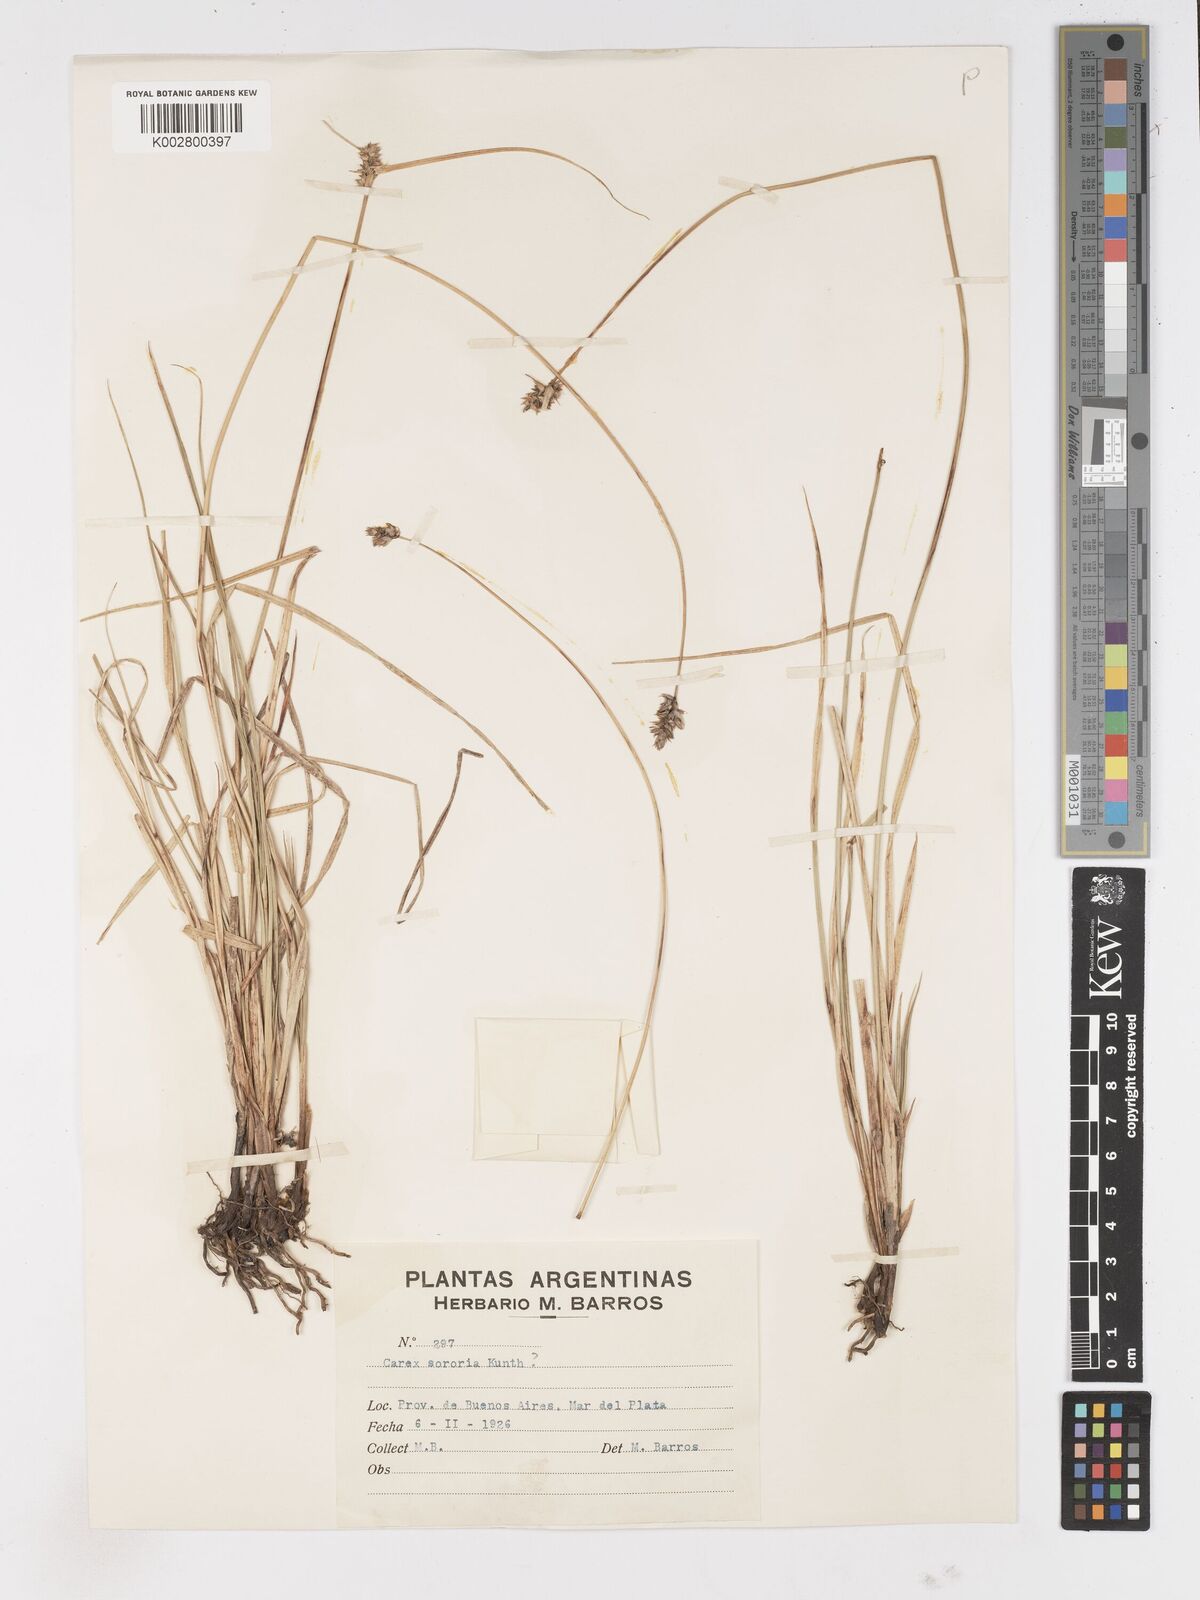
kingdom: Plantae
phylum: Tracheophyta
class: Liliopsida
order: Poales
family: Cyperaceae
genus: Carex
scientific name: Carex sororia
